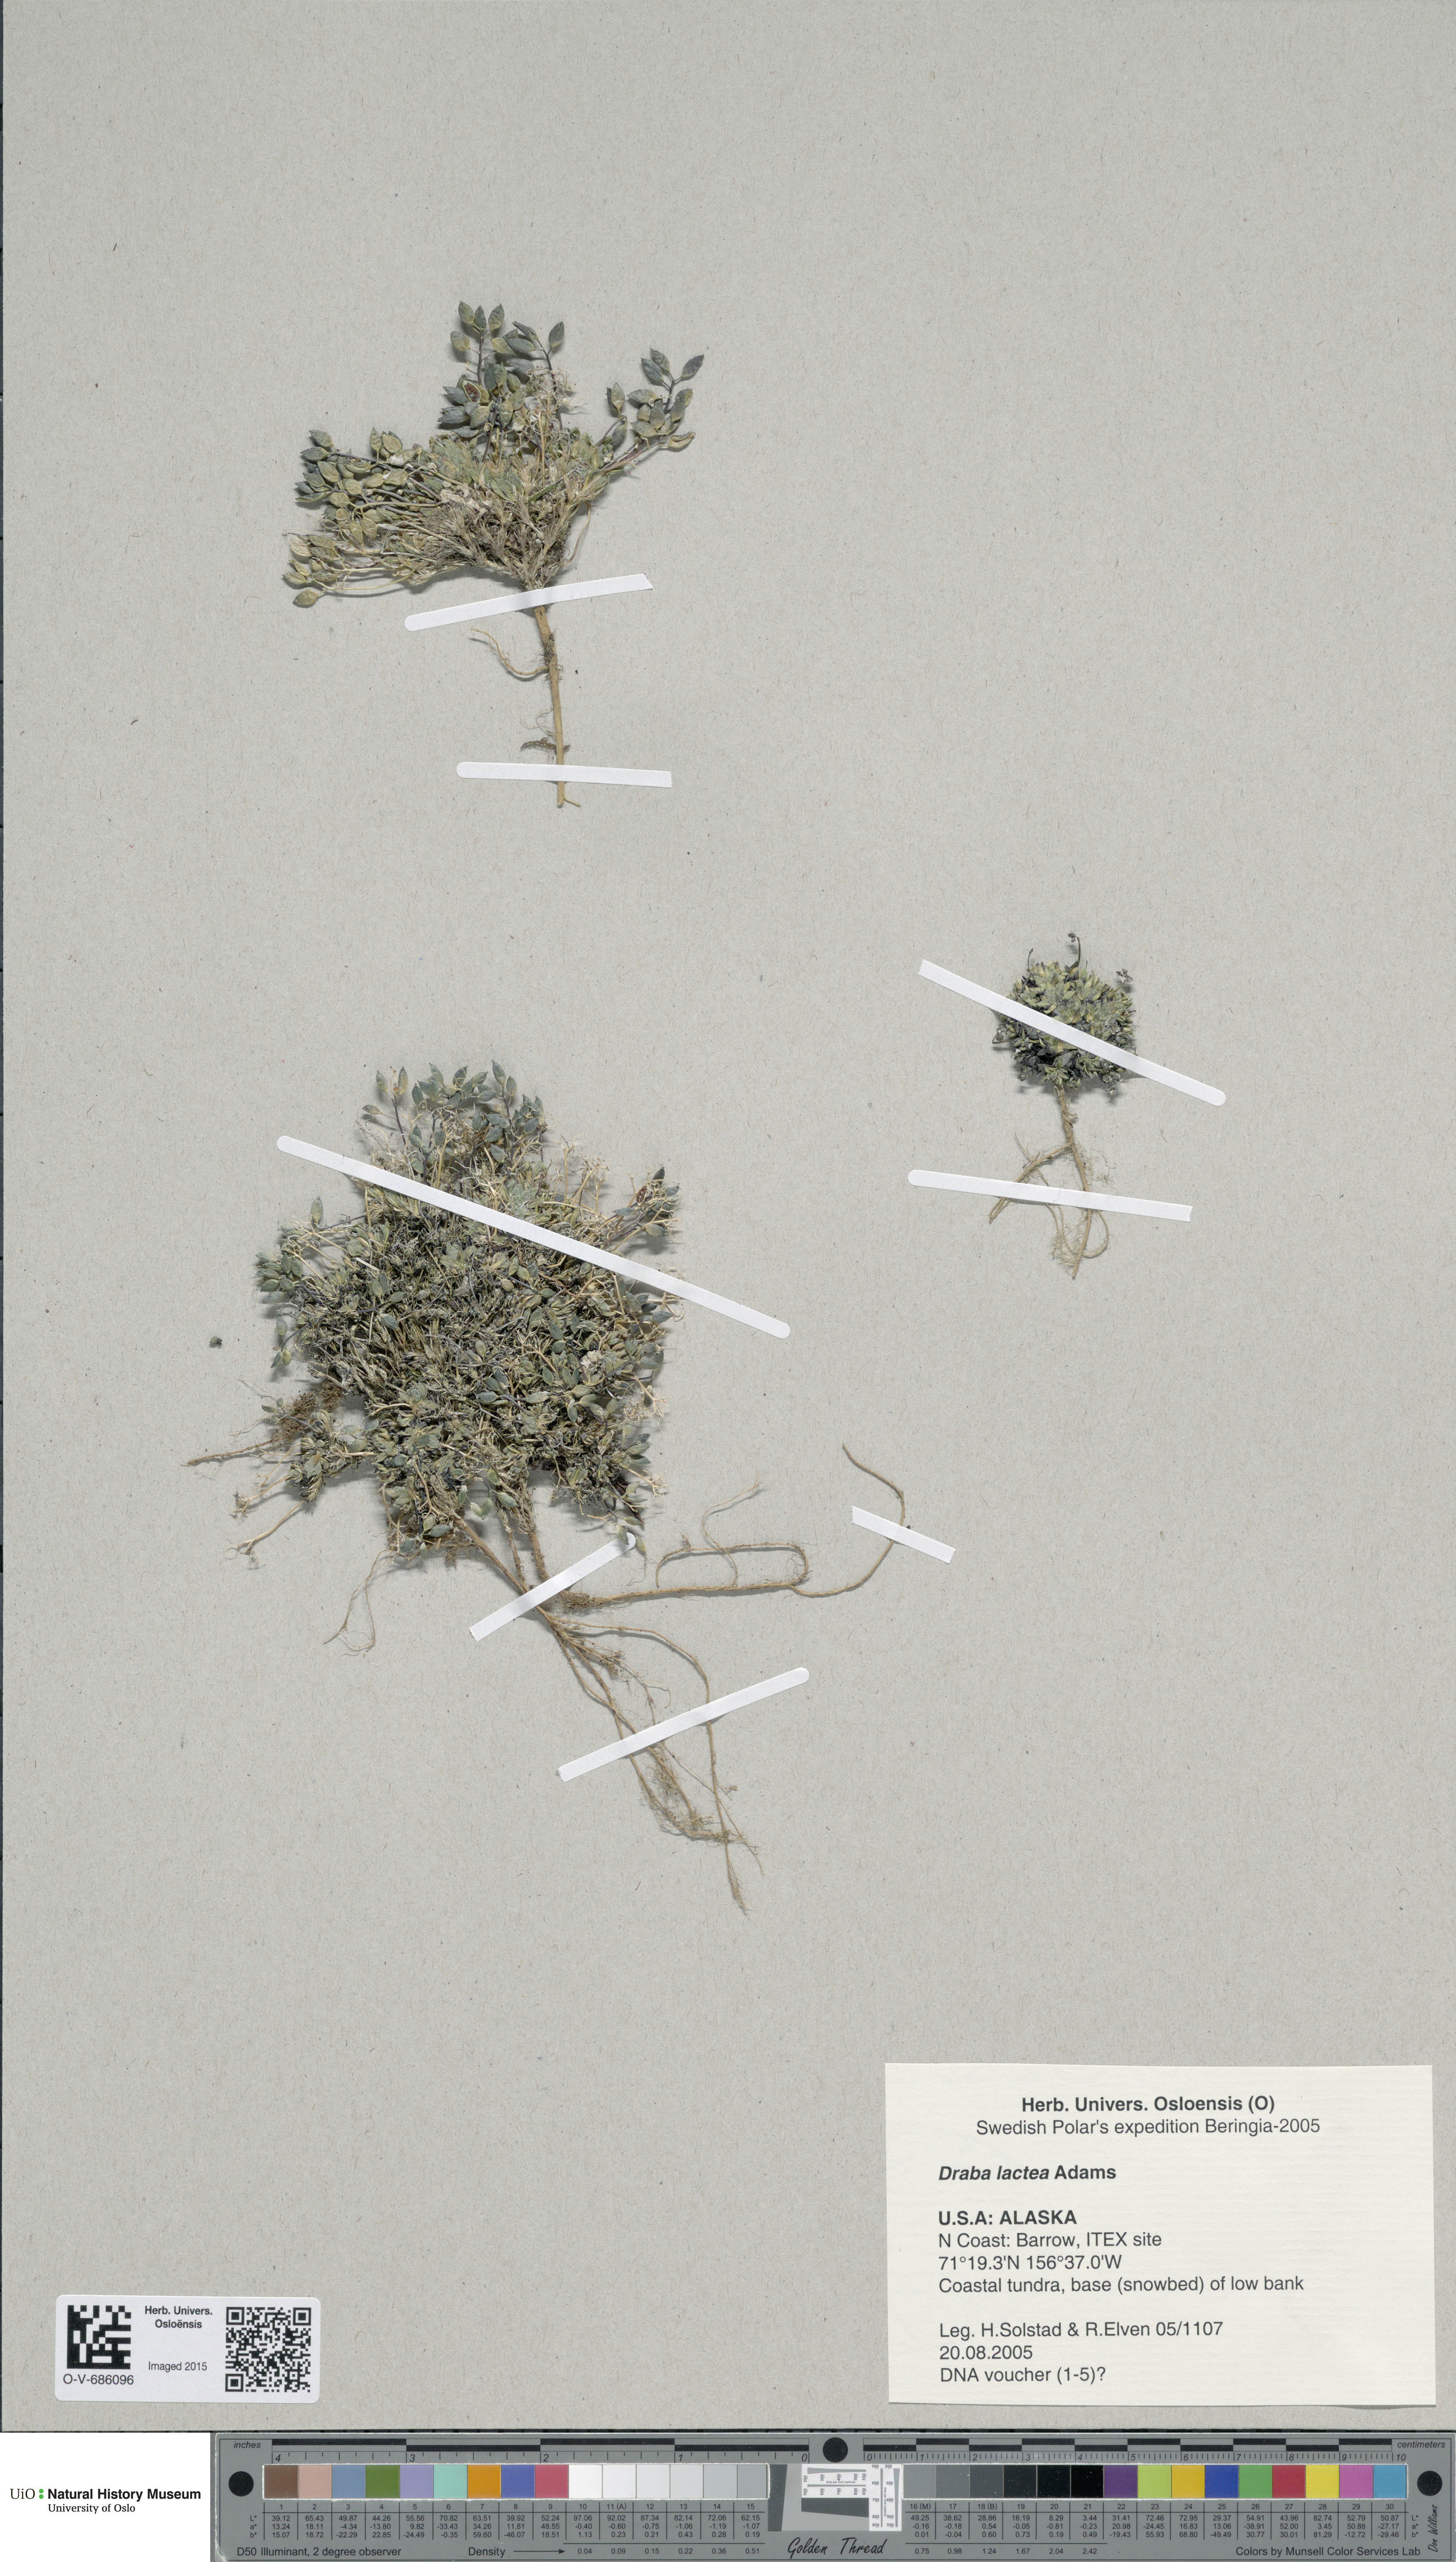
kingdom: Plantae
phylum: Tracheophyta
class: Magnoliopsida
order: Brassicales
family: Brassicaceae
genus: Draba
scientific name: Draba lactea
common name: Milky draba
